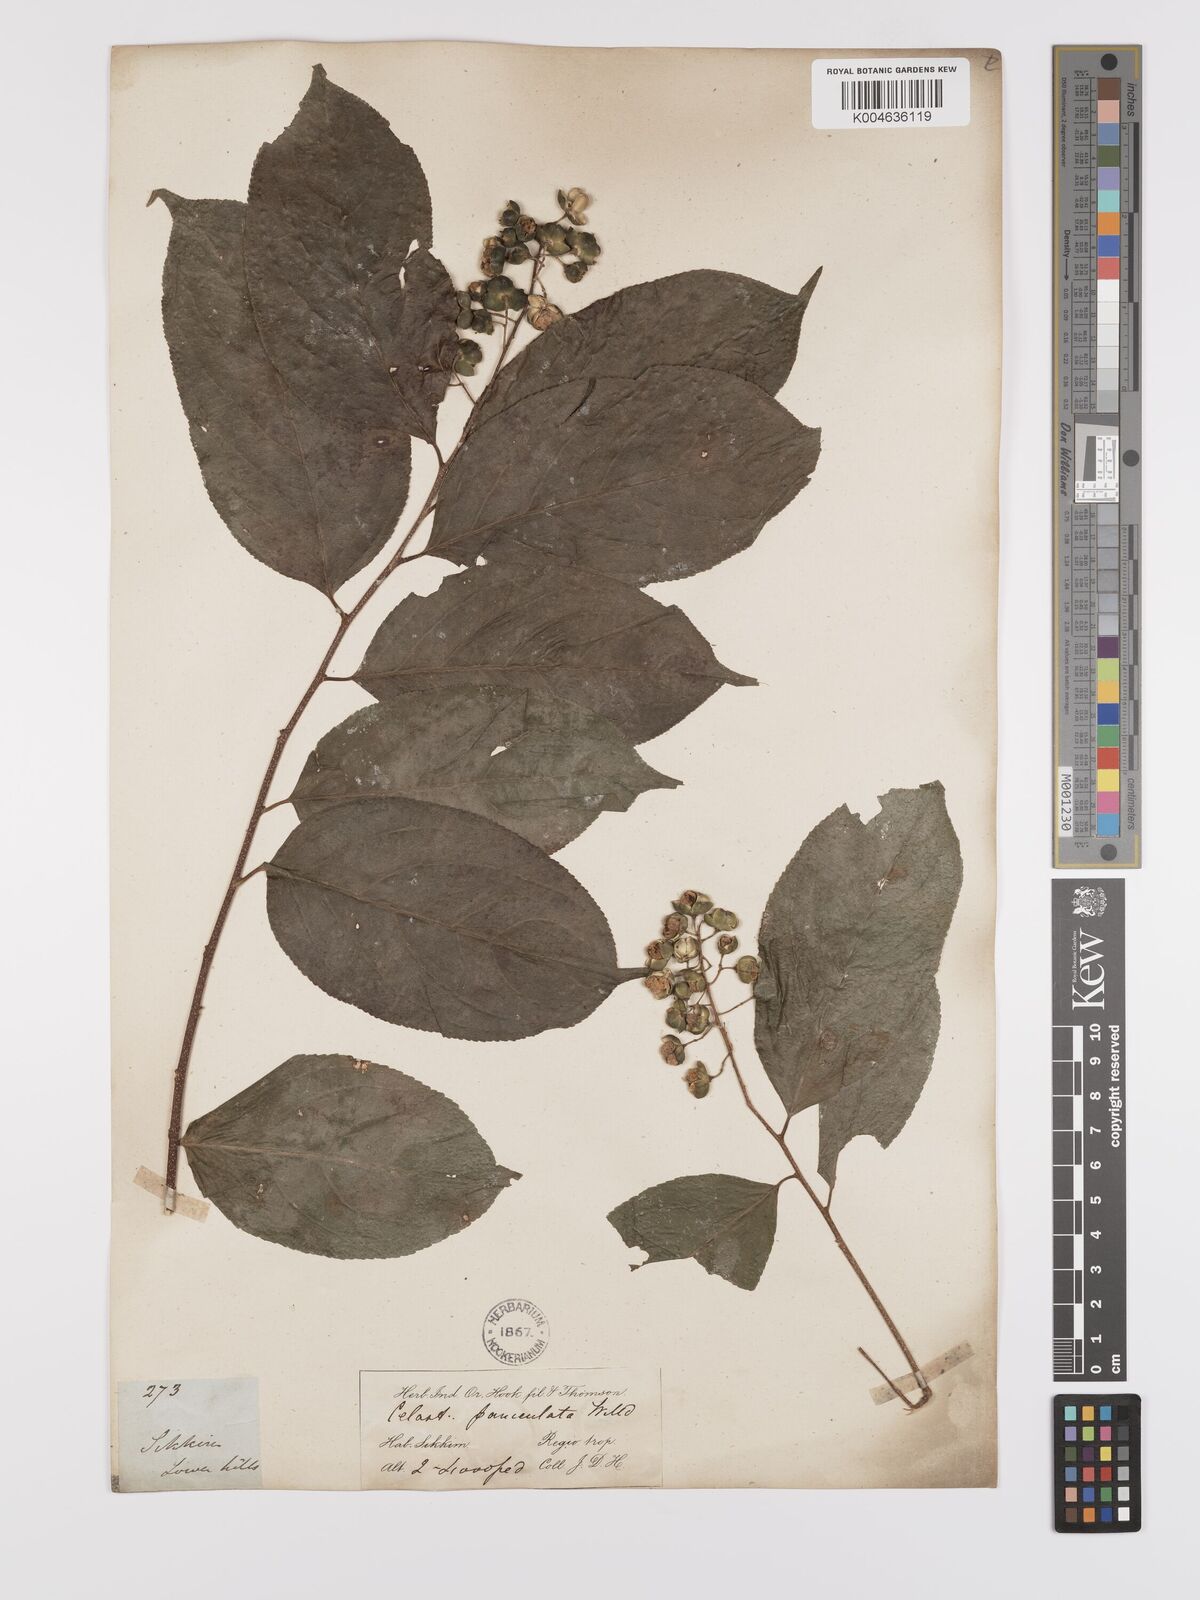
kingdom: Plantae
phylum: Tracheophyta
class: Magnoliopsida
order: Celastrales
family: Celastraceae
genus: Celastrus
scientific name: Celastrus paniculatus
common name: Oriental bittersweet; staff vine
